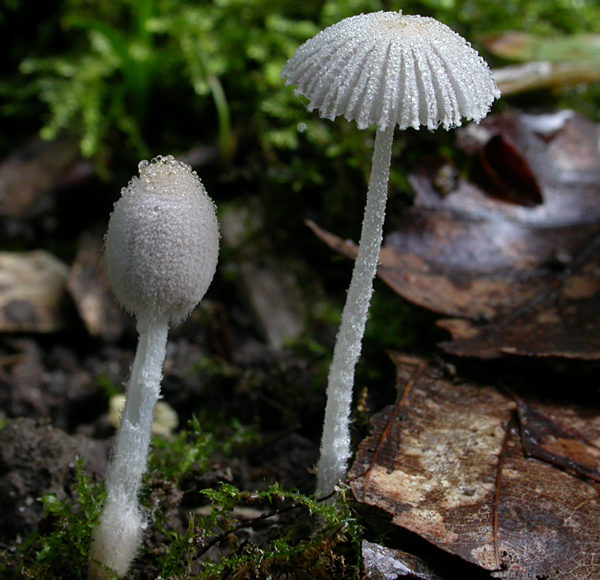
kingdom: Fungi
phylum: Basidiomycota
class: Agaricomycetes
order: Agaricales
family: Psathyrellaceae
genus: Coprinopsis
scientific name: Coprinopsis cortinata
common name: slør-blækhat
